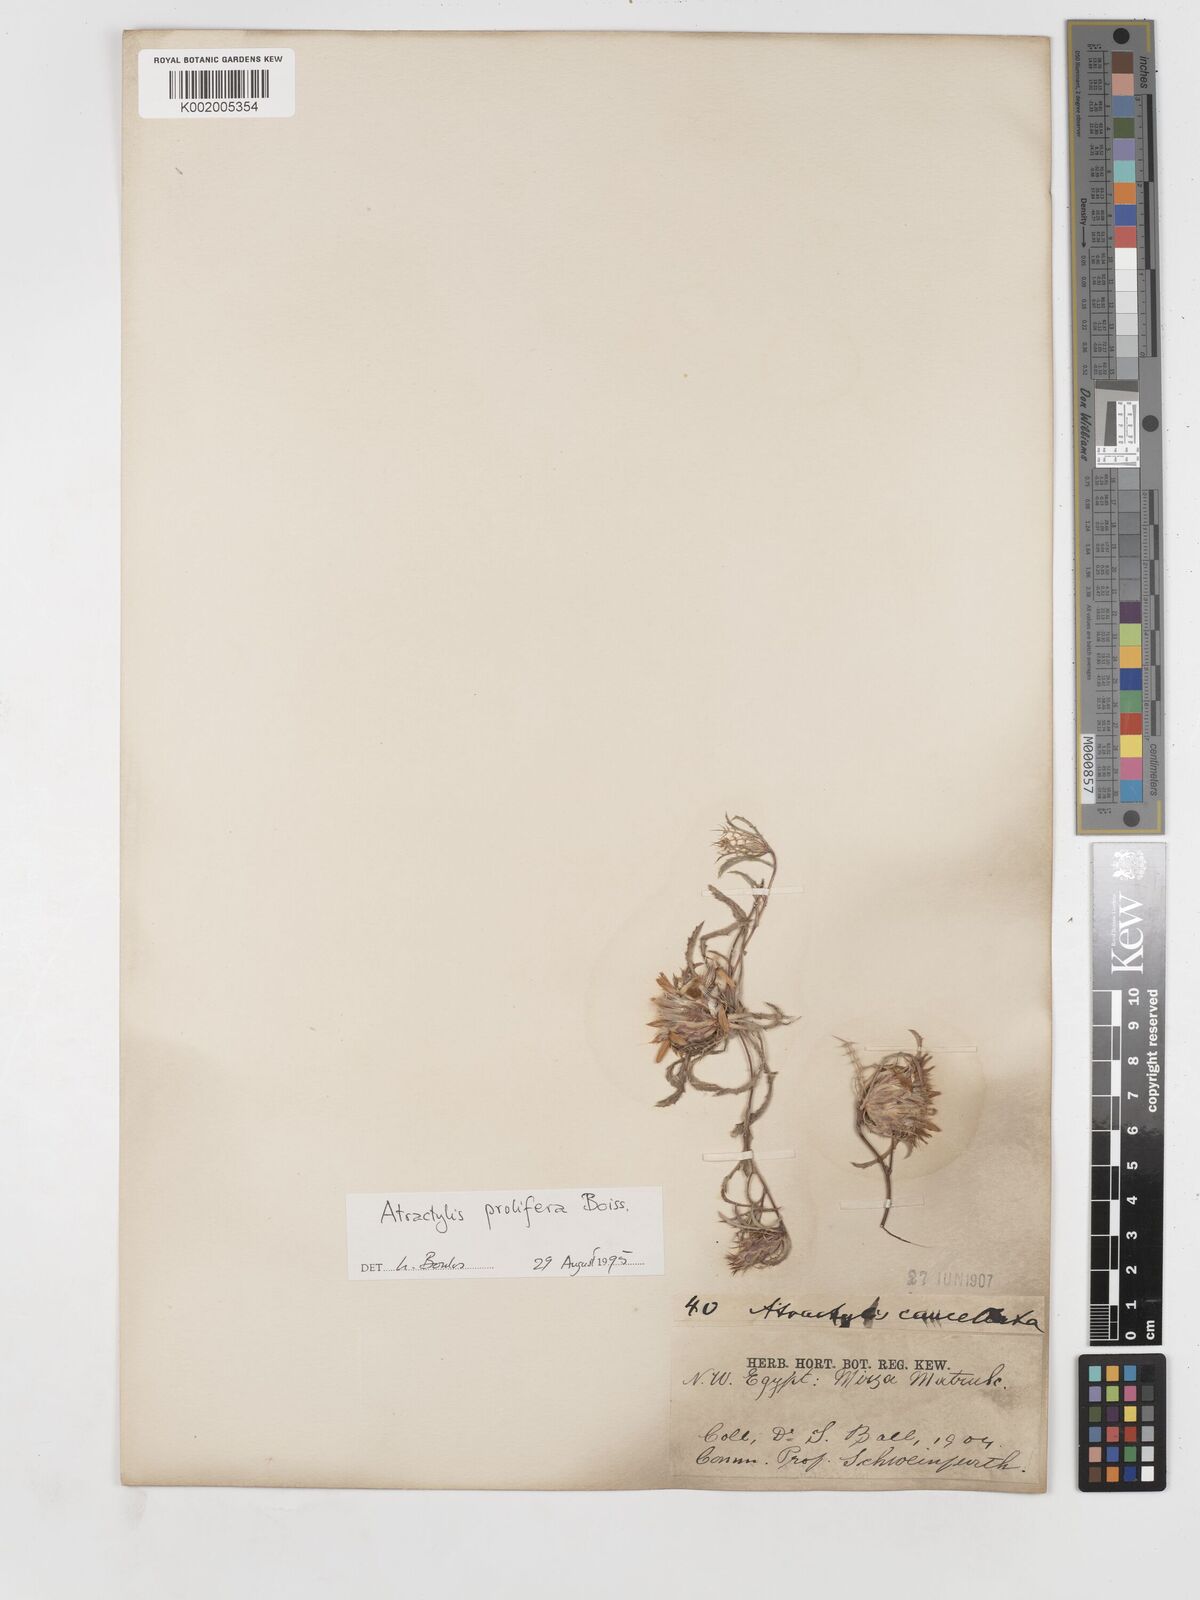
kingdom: Plantae
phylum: Tracheophyta
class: Magnoliopsida
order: Asterales
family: Asteraceae
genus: Atractylis
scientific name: Atractylis prolifera
